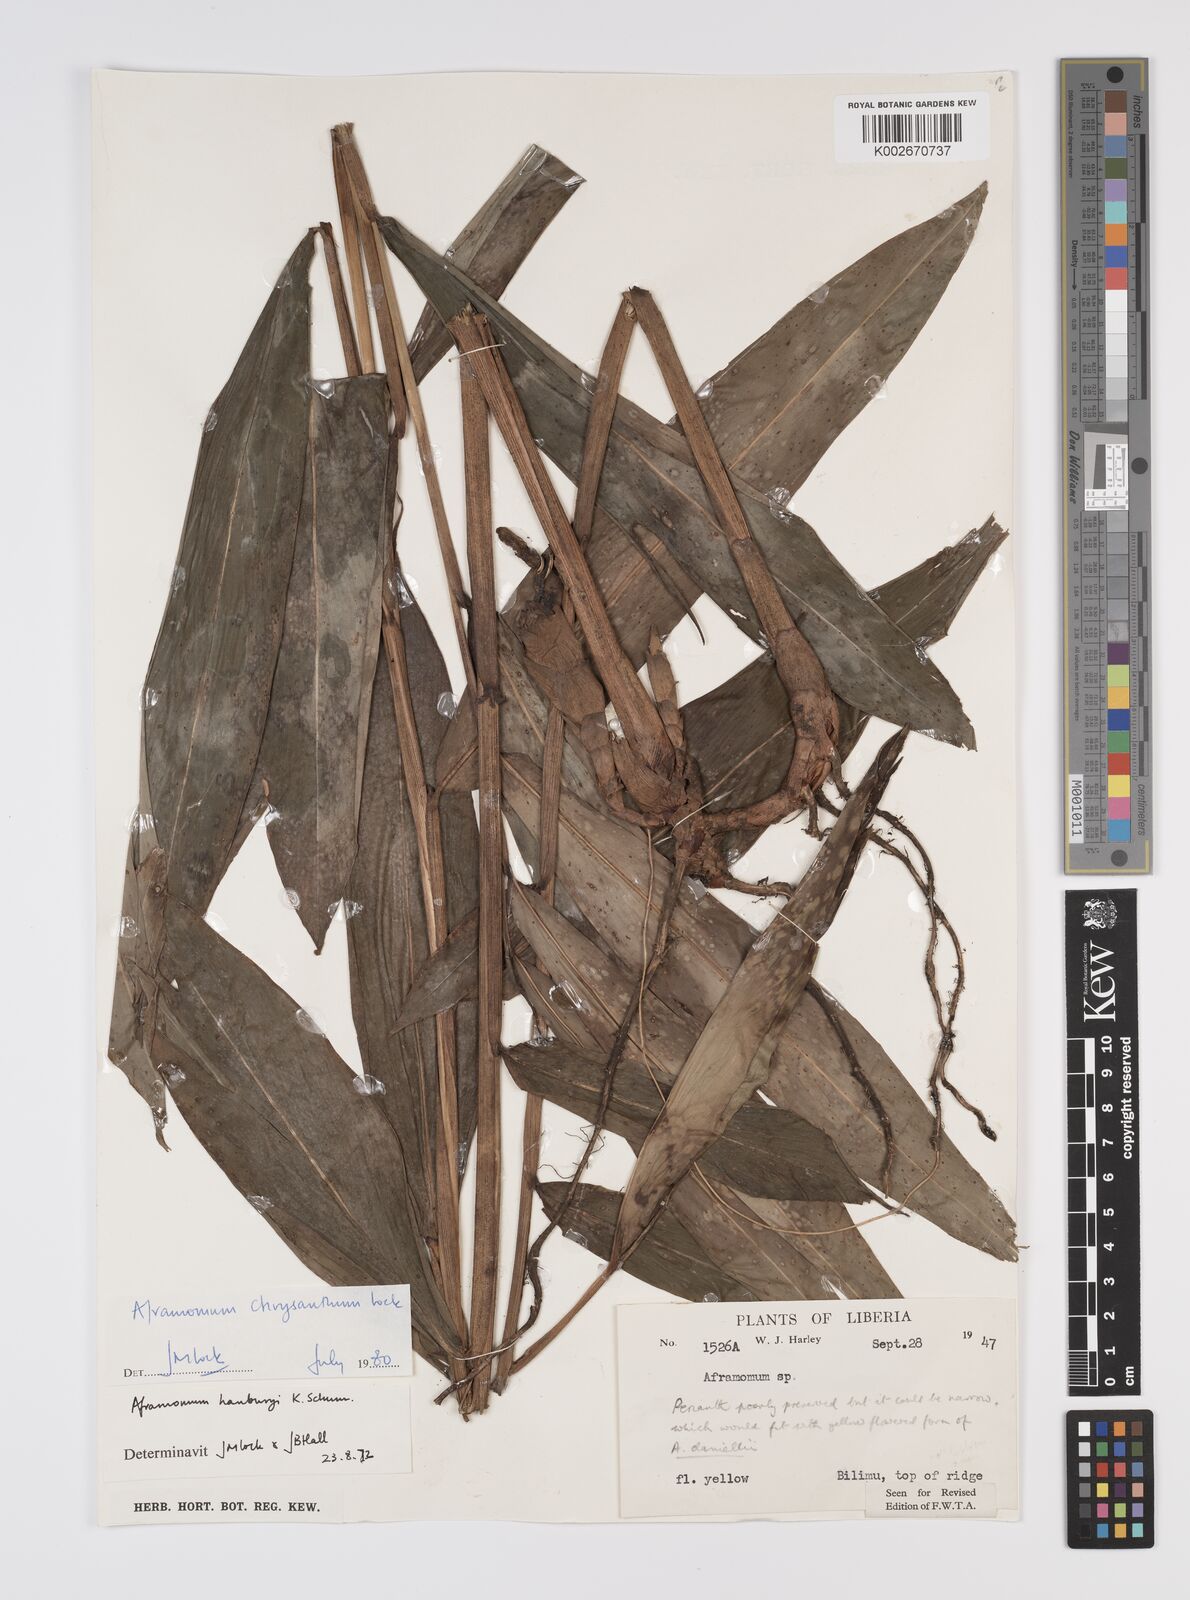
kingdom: Plantae
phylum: Tracheophyta
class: Liliopsida
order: Zingiberales
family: Zingiberaceae
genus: Aframomum
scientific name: Aframomum chrysanthum
